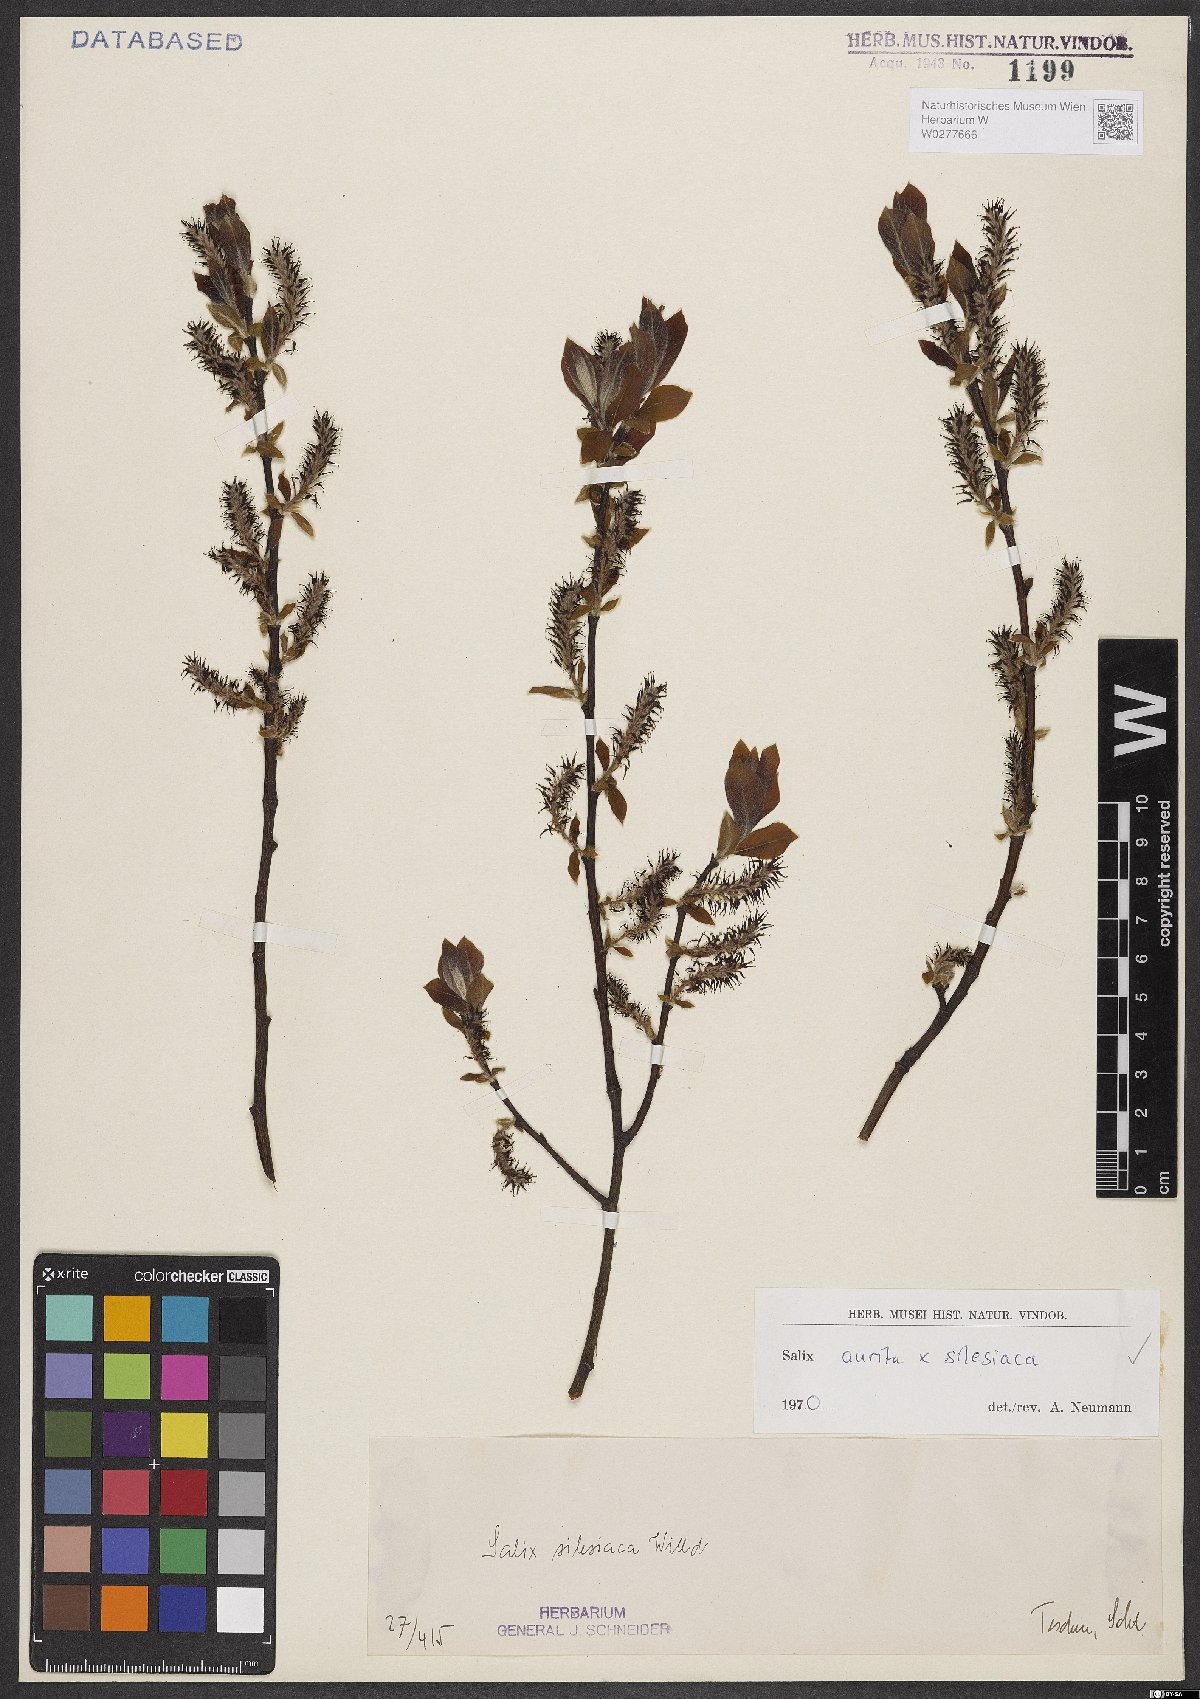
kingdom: Plantae
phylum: Tracheophyta
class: Magnoliopsida
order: Malpighiales
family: Salicaceae
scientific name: Salicaceae
